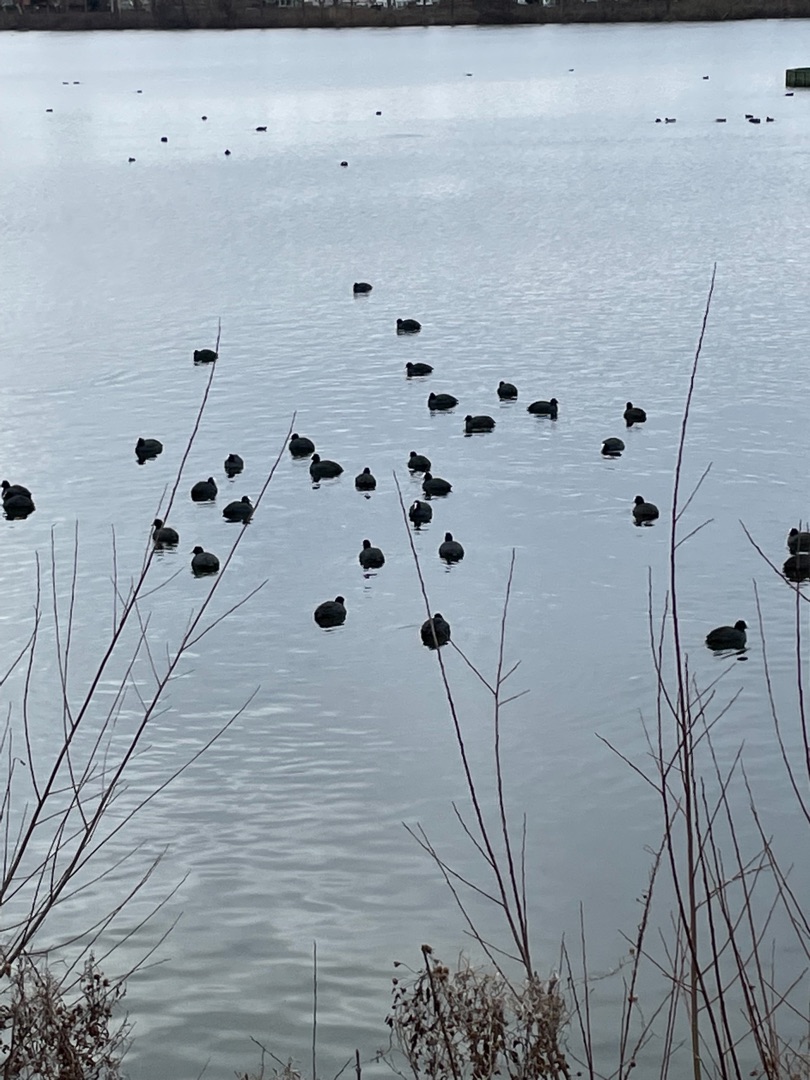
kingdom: Animalia
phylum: Chordata
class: Aves
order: Gruiformes
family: Rallidae
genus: Fulica
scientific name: Fulica atra
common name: Blishøne
